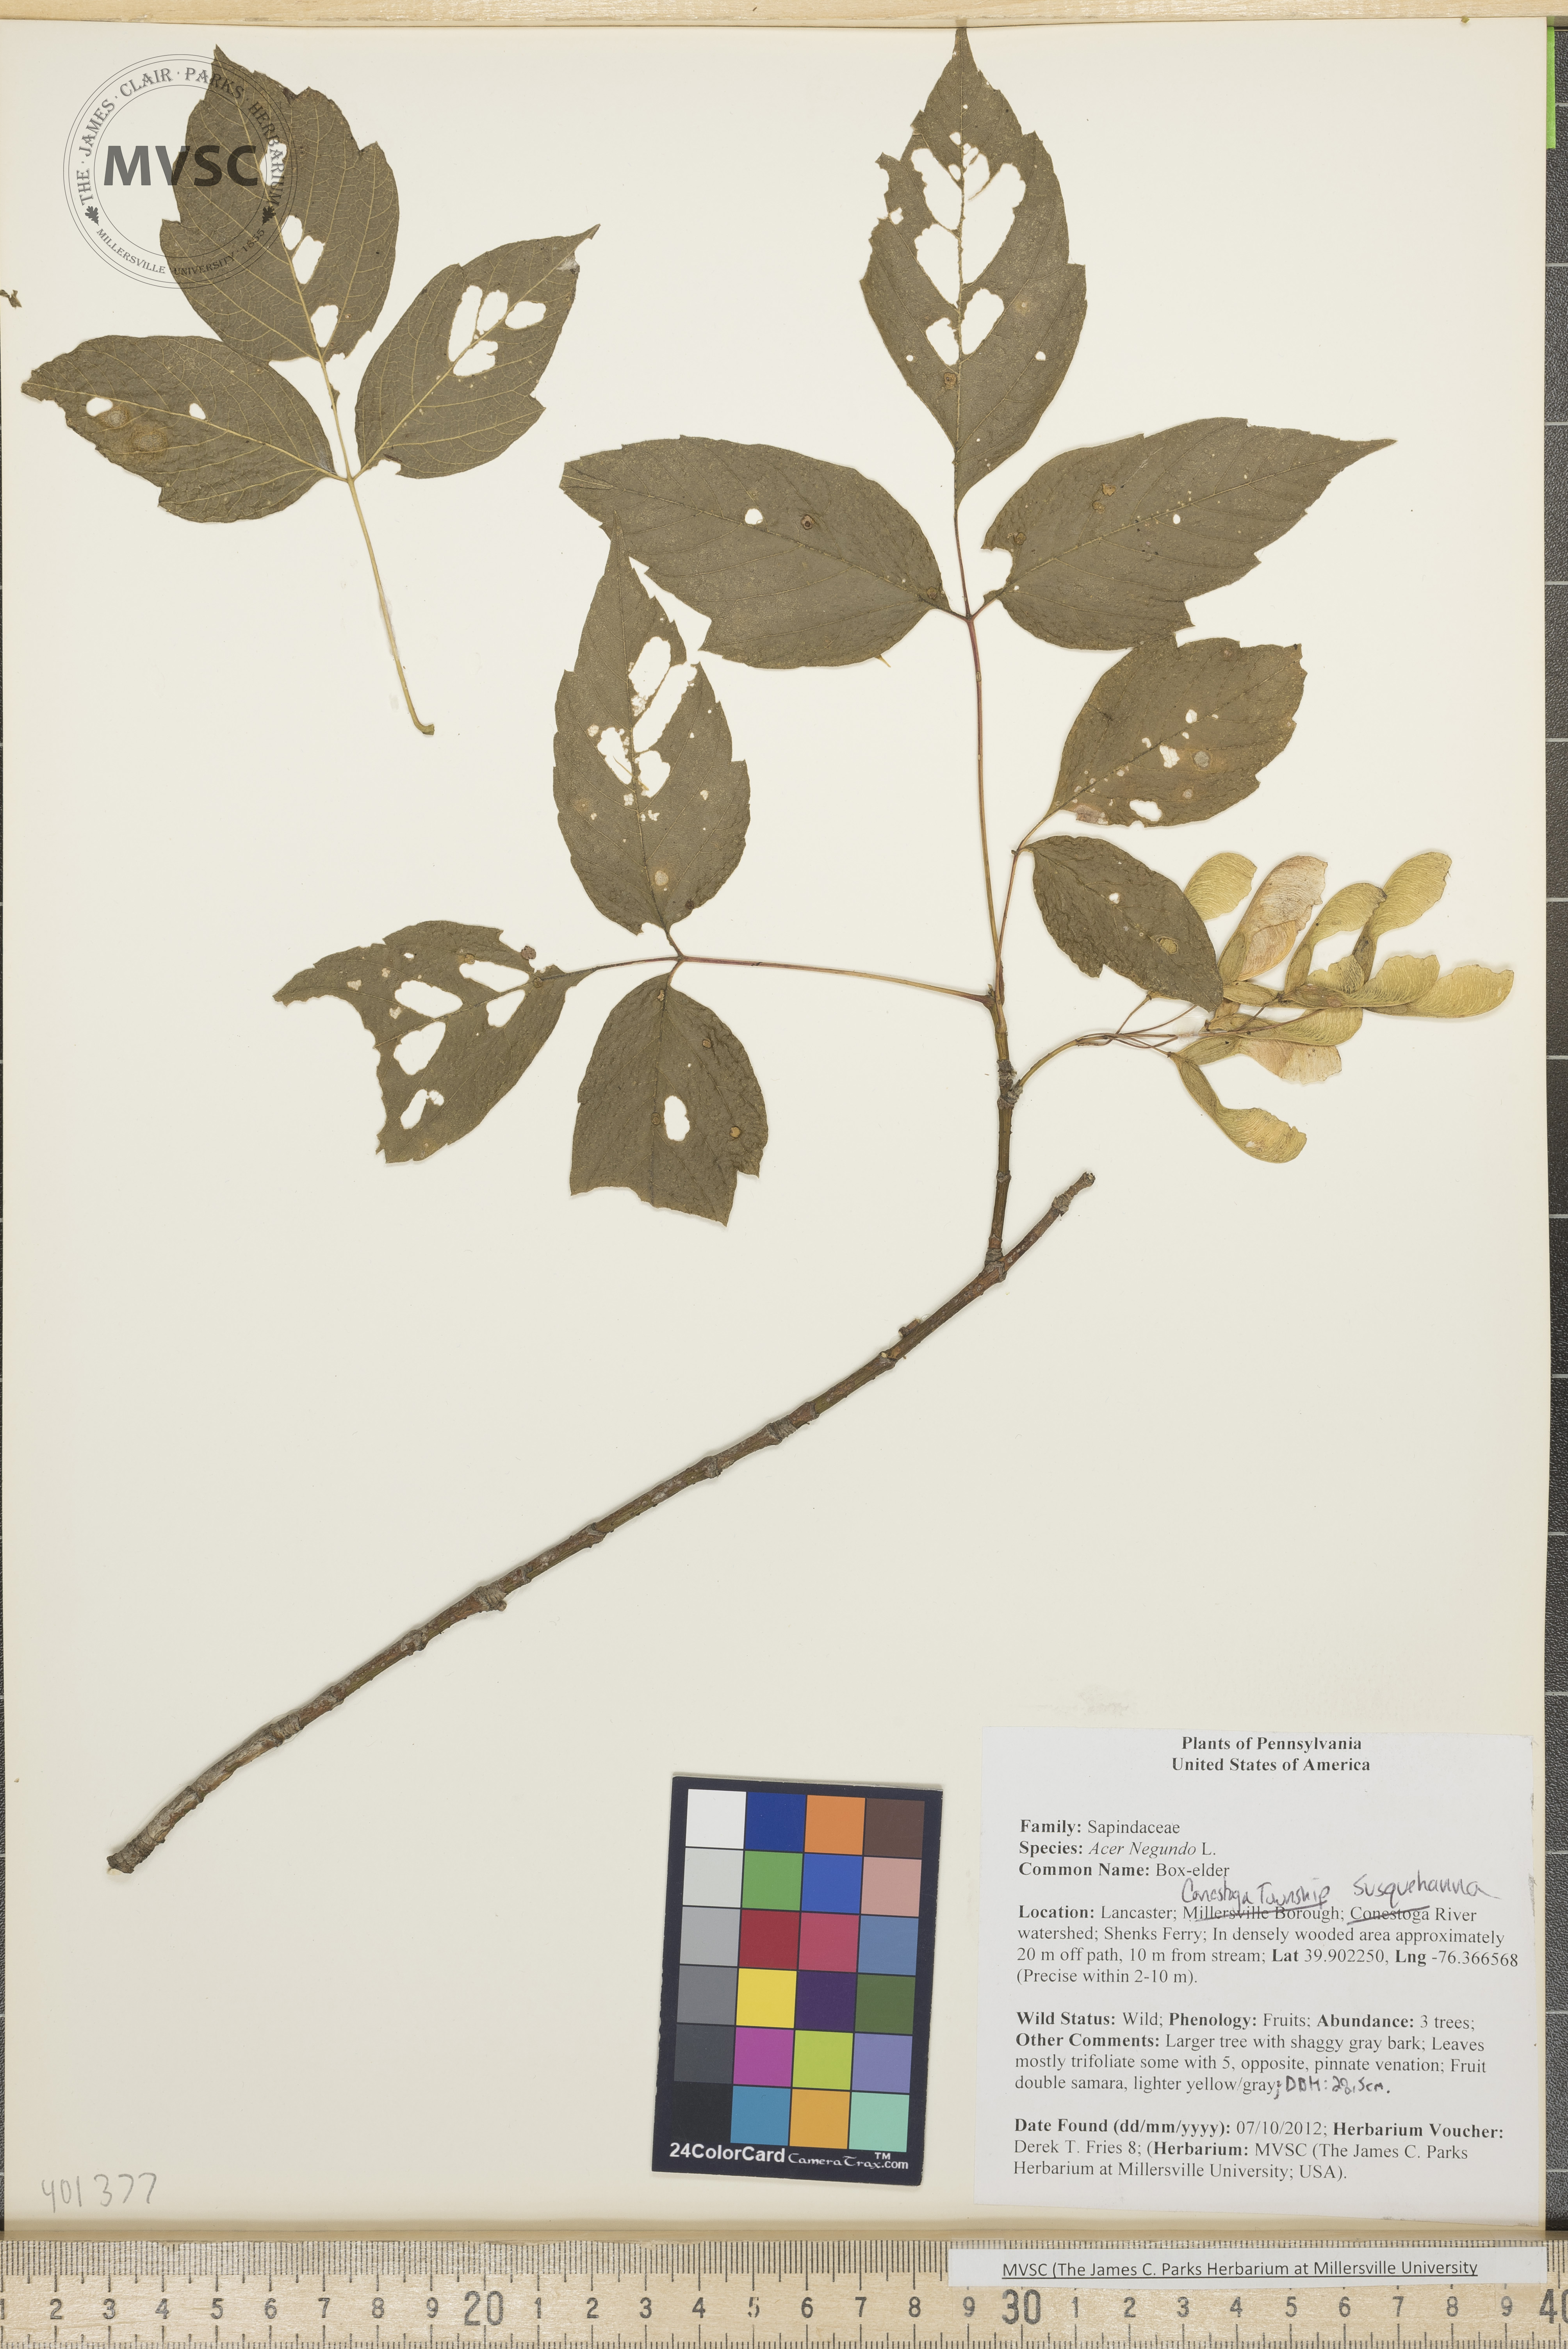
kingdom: Plantae
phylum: Tracheophyta
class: Magnoliopsida
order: Sapindales
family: Sapindaceae
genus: Acer
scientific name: Acer negundo
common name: Box-elder
